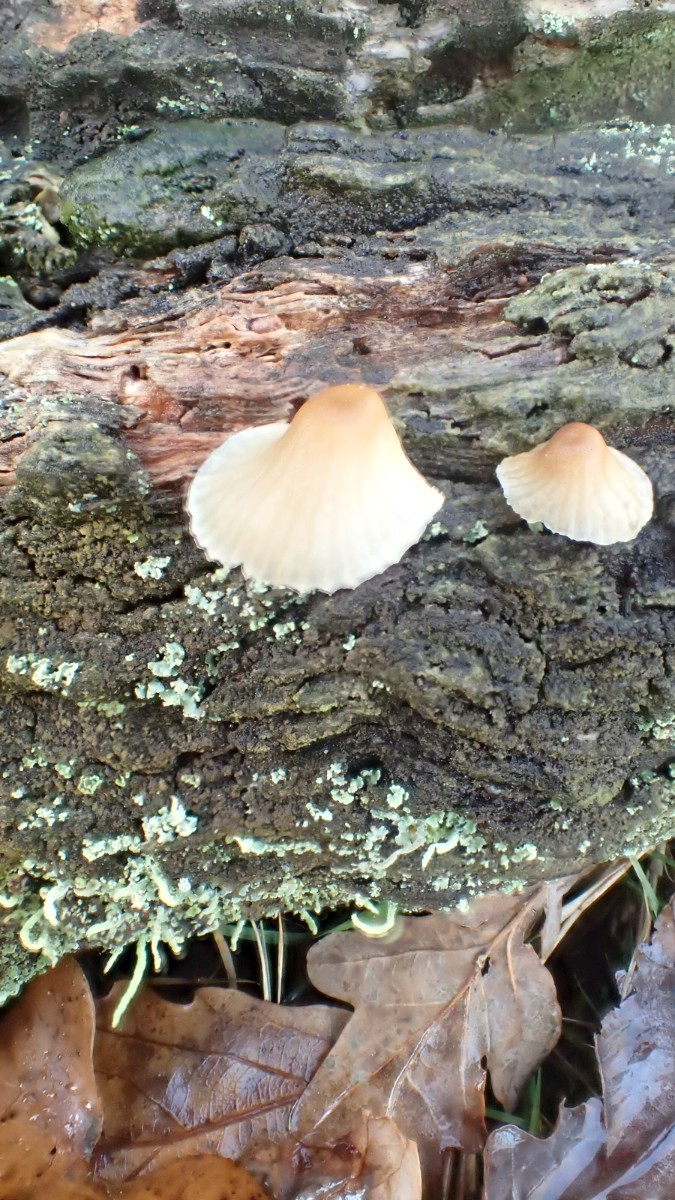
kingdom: Fungi
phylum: Basidiomycota
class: Agaricomycetes
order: Agaricales
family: Mycenaceae
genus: Mycena
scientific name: Mycena galericulata
